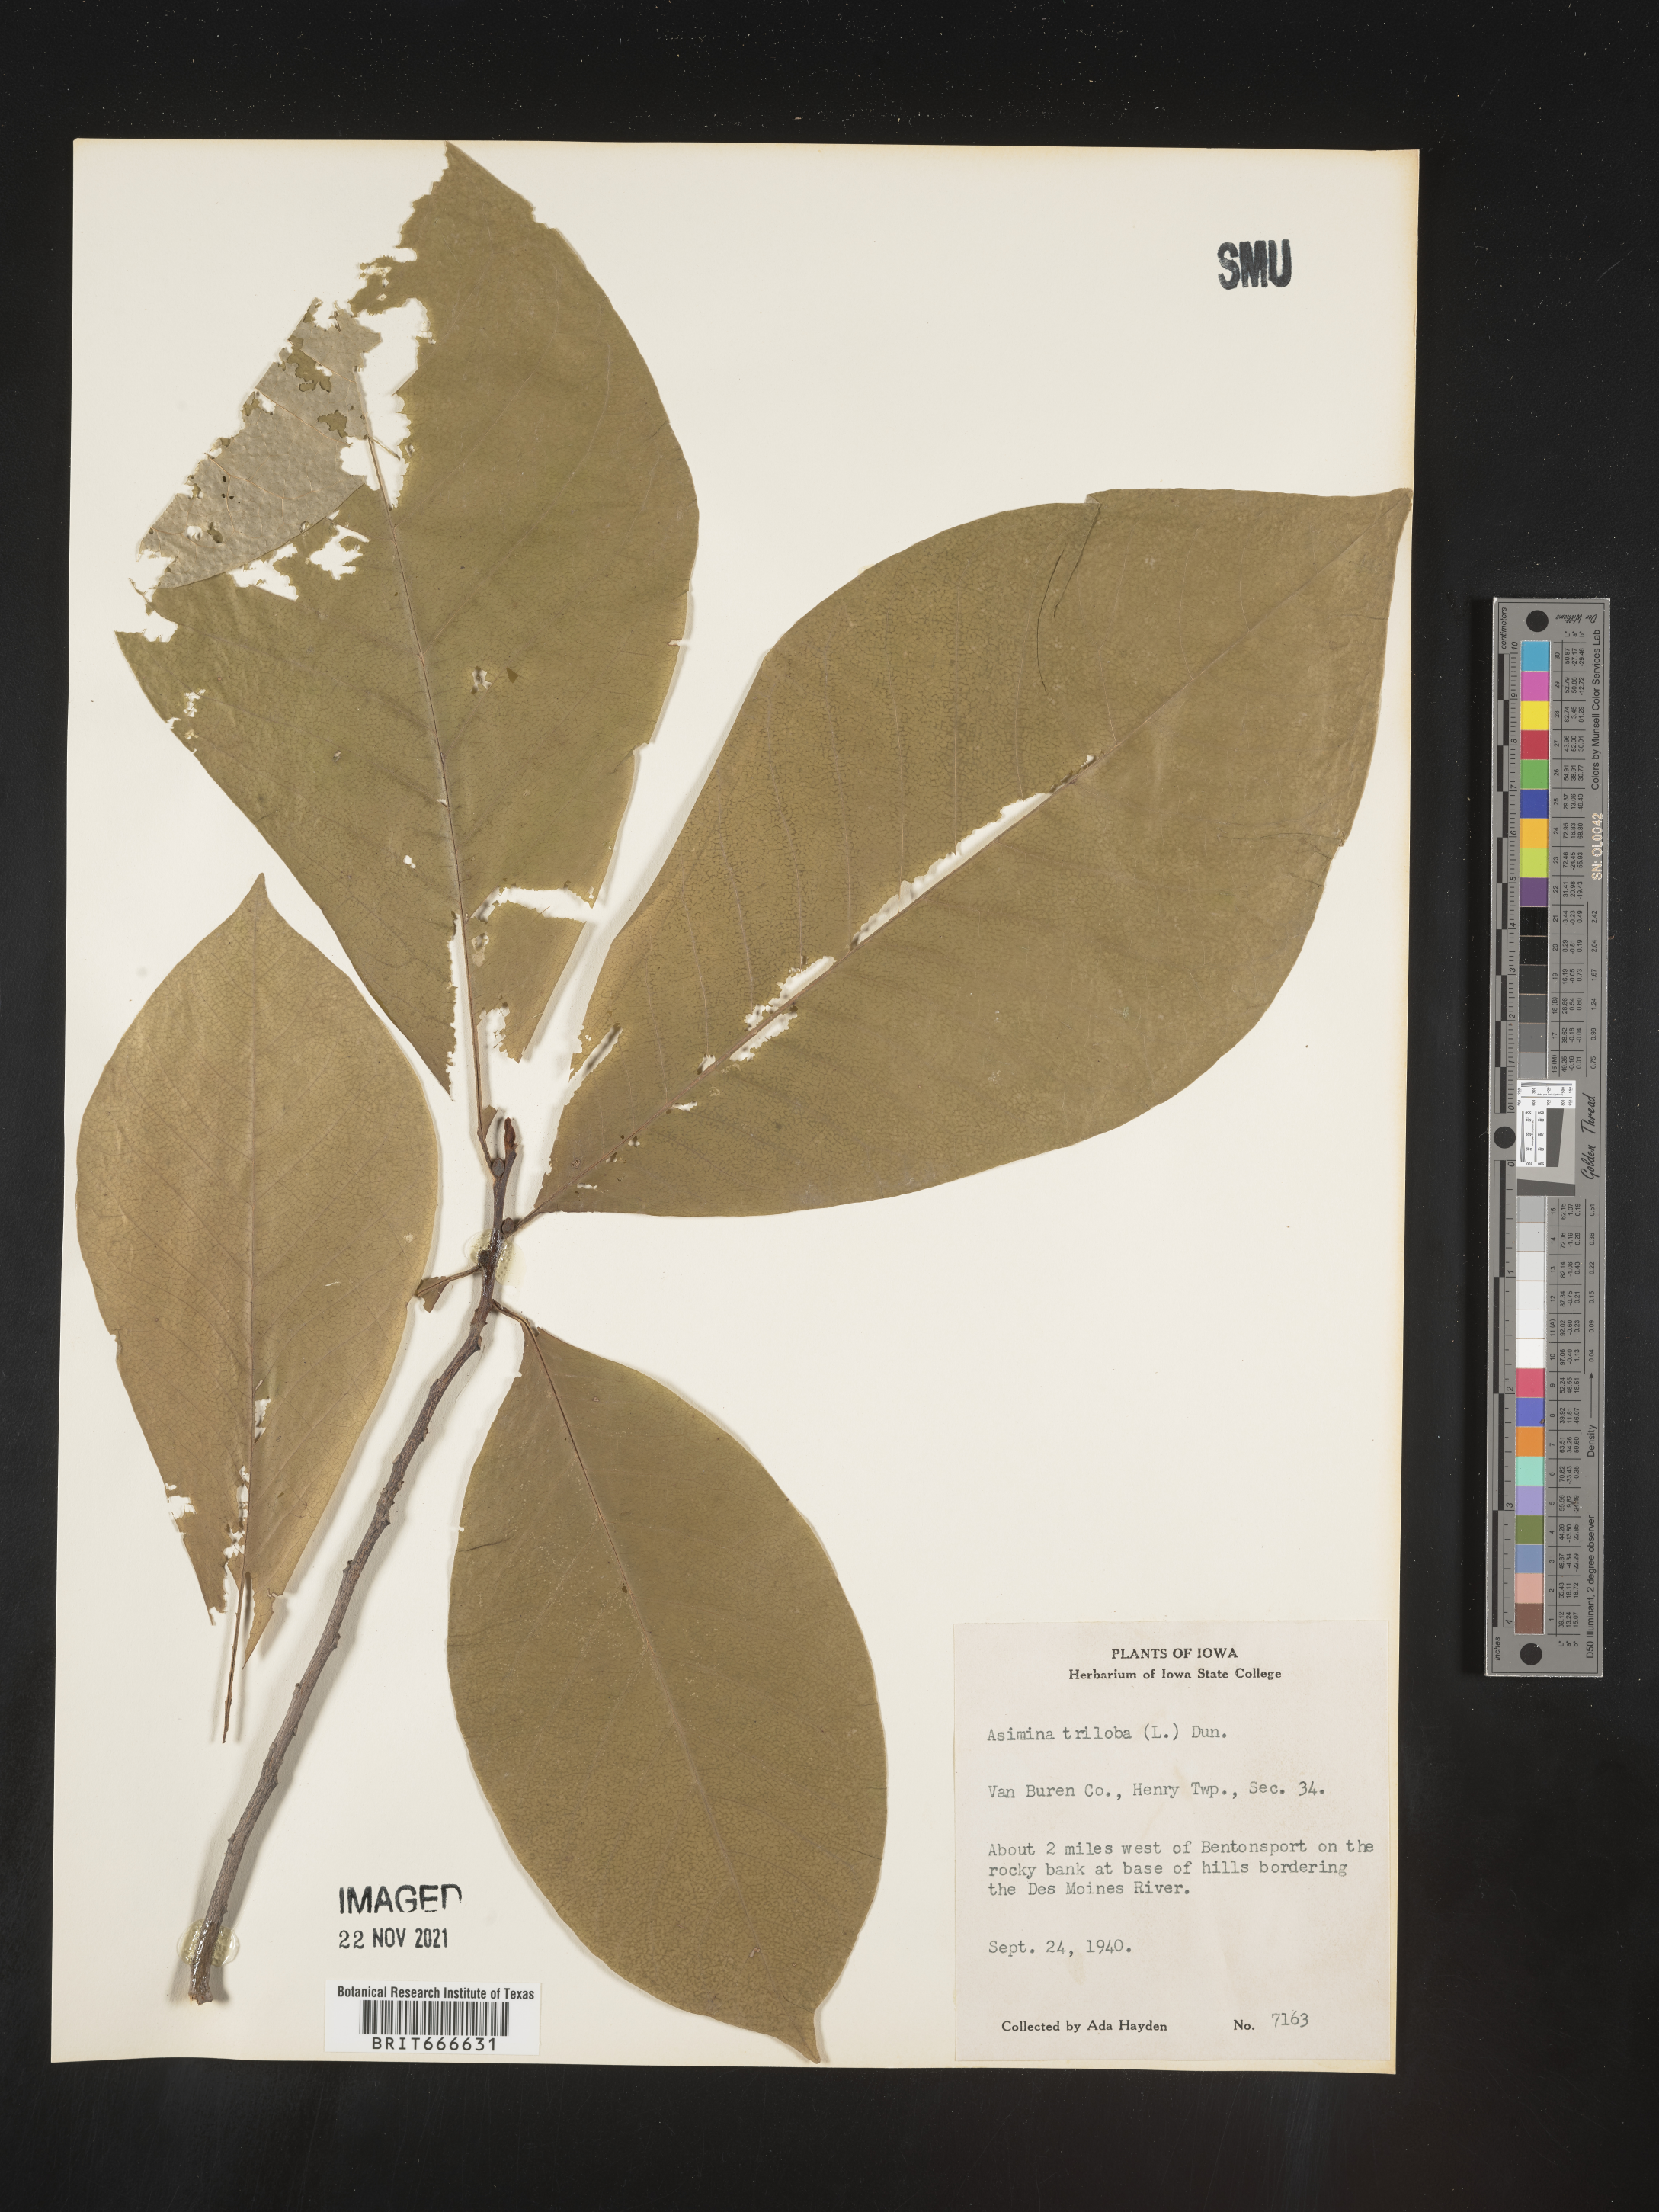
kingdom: Plantae
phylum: Tracheophyta
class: Magnoliopsida
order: Magnoliales
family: Annonaceae
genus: Asimina
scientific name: Asimina triloba
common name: Dog-banana
